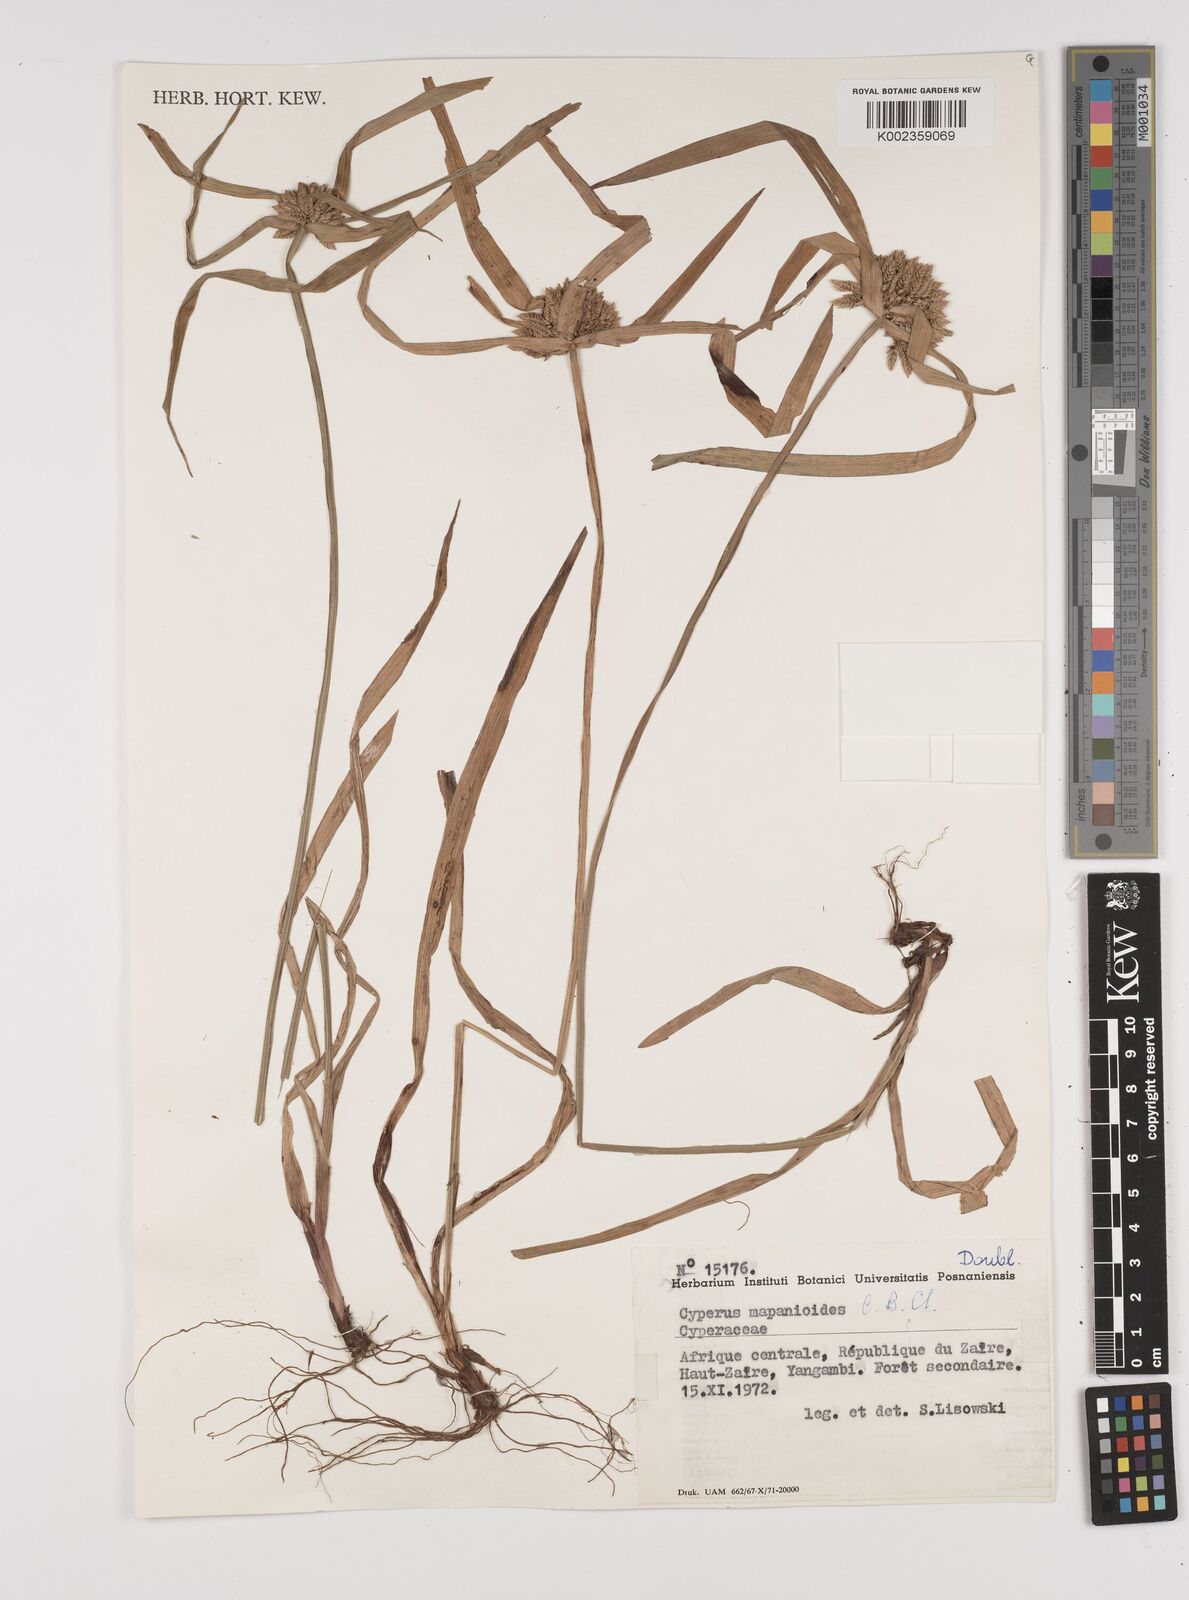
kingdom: Plantae
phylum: Tracheophyta
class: Liliopsida
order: Poales
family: Cyperaceae
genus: Cyperus
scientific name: Cyperus mapanioides
